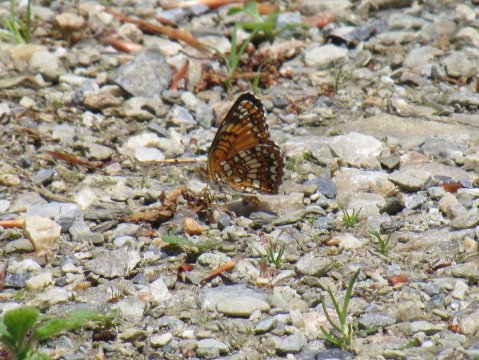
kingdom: Animalia
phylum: Arthropoda
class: Insecta
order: Lepidoptera
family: Nymphalidae
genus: Chlosyne
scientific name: Chlosyne harrisii
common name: Harris's Checkerspot
